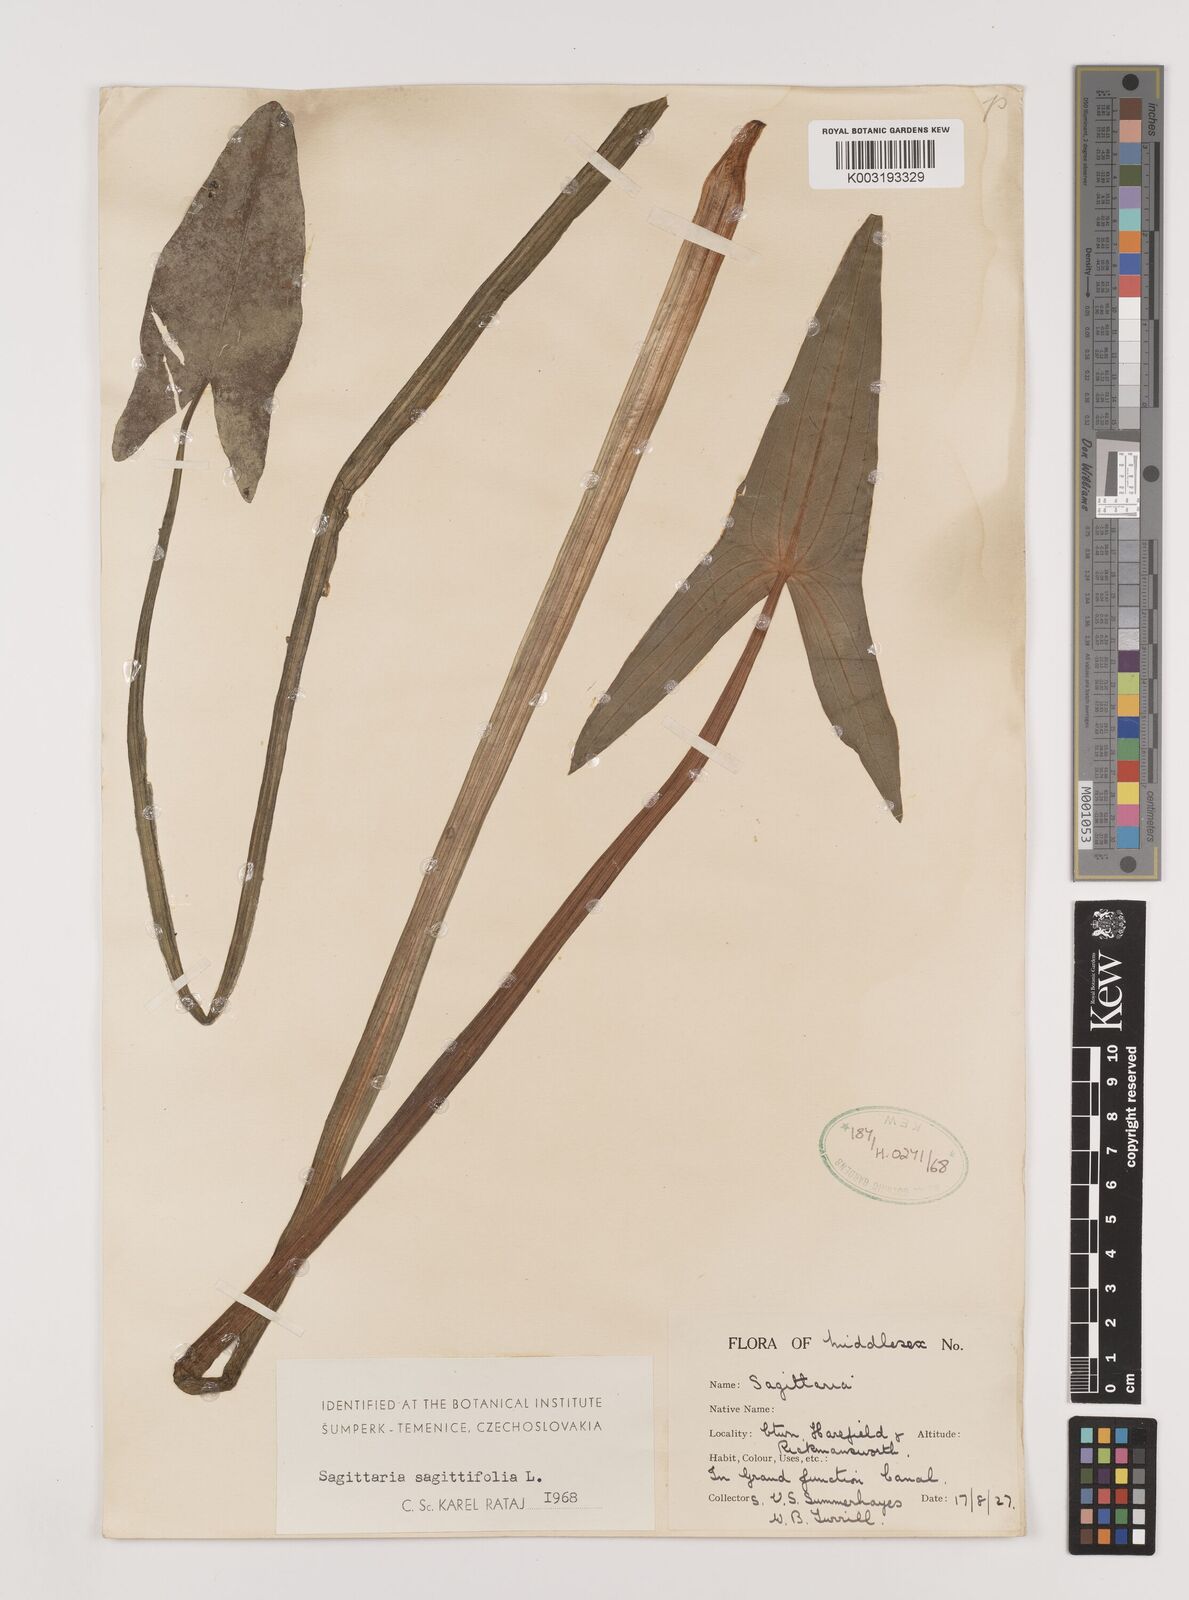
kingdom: Plantae
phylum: Tracheophyta
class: Liliopsida
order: Alismatales
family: Alismataceae
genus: Sagittaria
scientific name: Sagittaria sagittifolia
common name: Arrowhead
